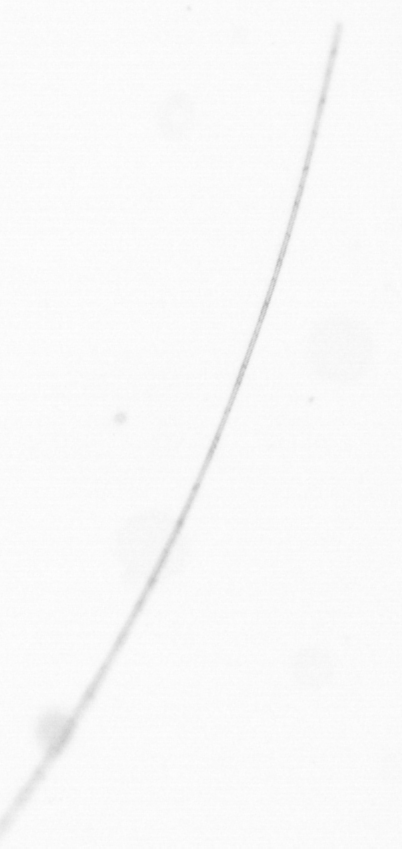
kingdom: Chromista
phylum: Ochrophyta
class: Bacillariophyceae
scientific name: Bacillariophyceae
